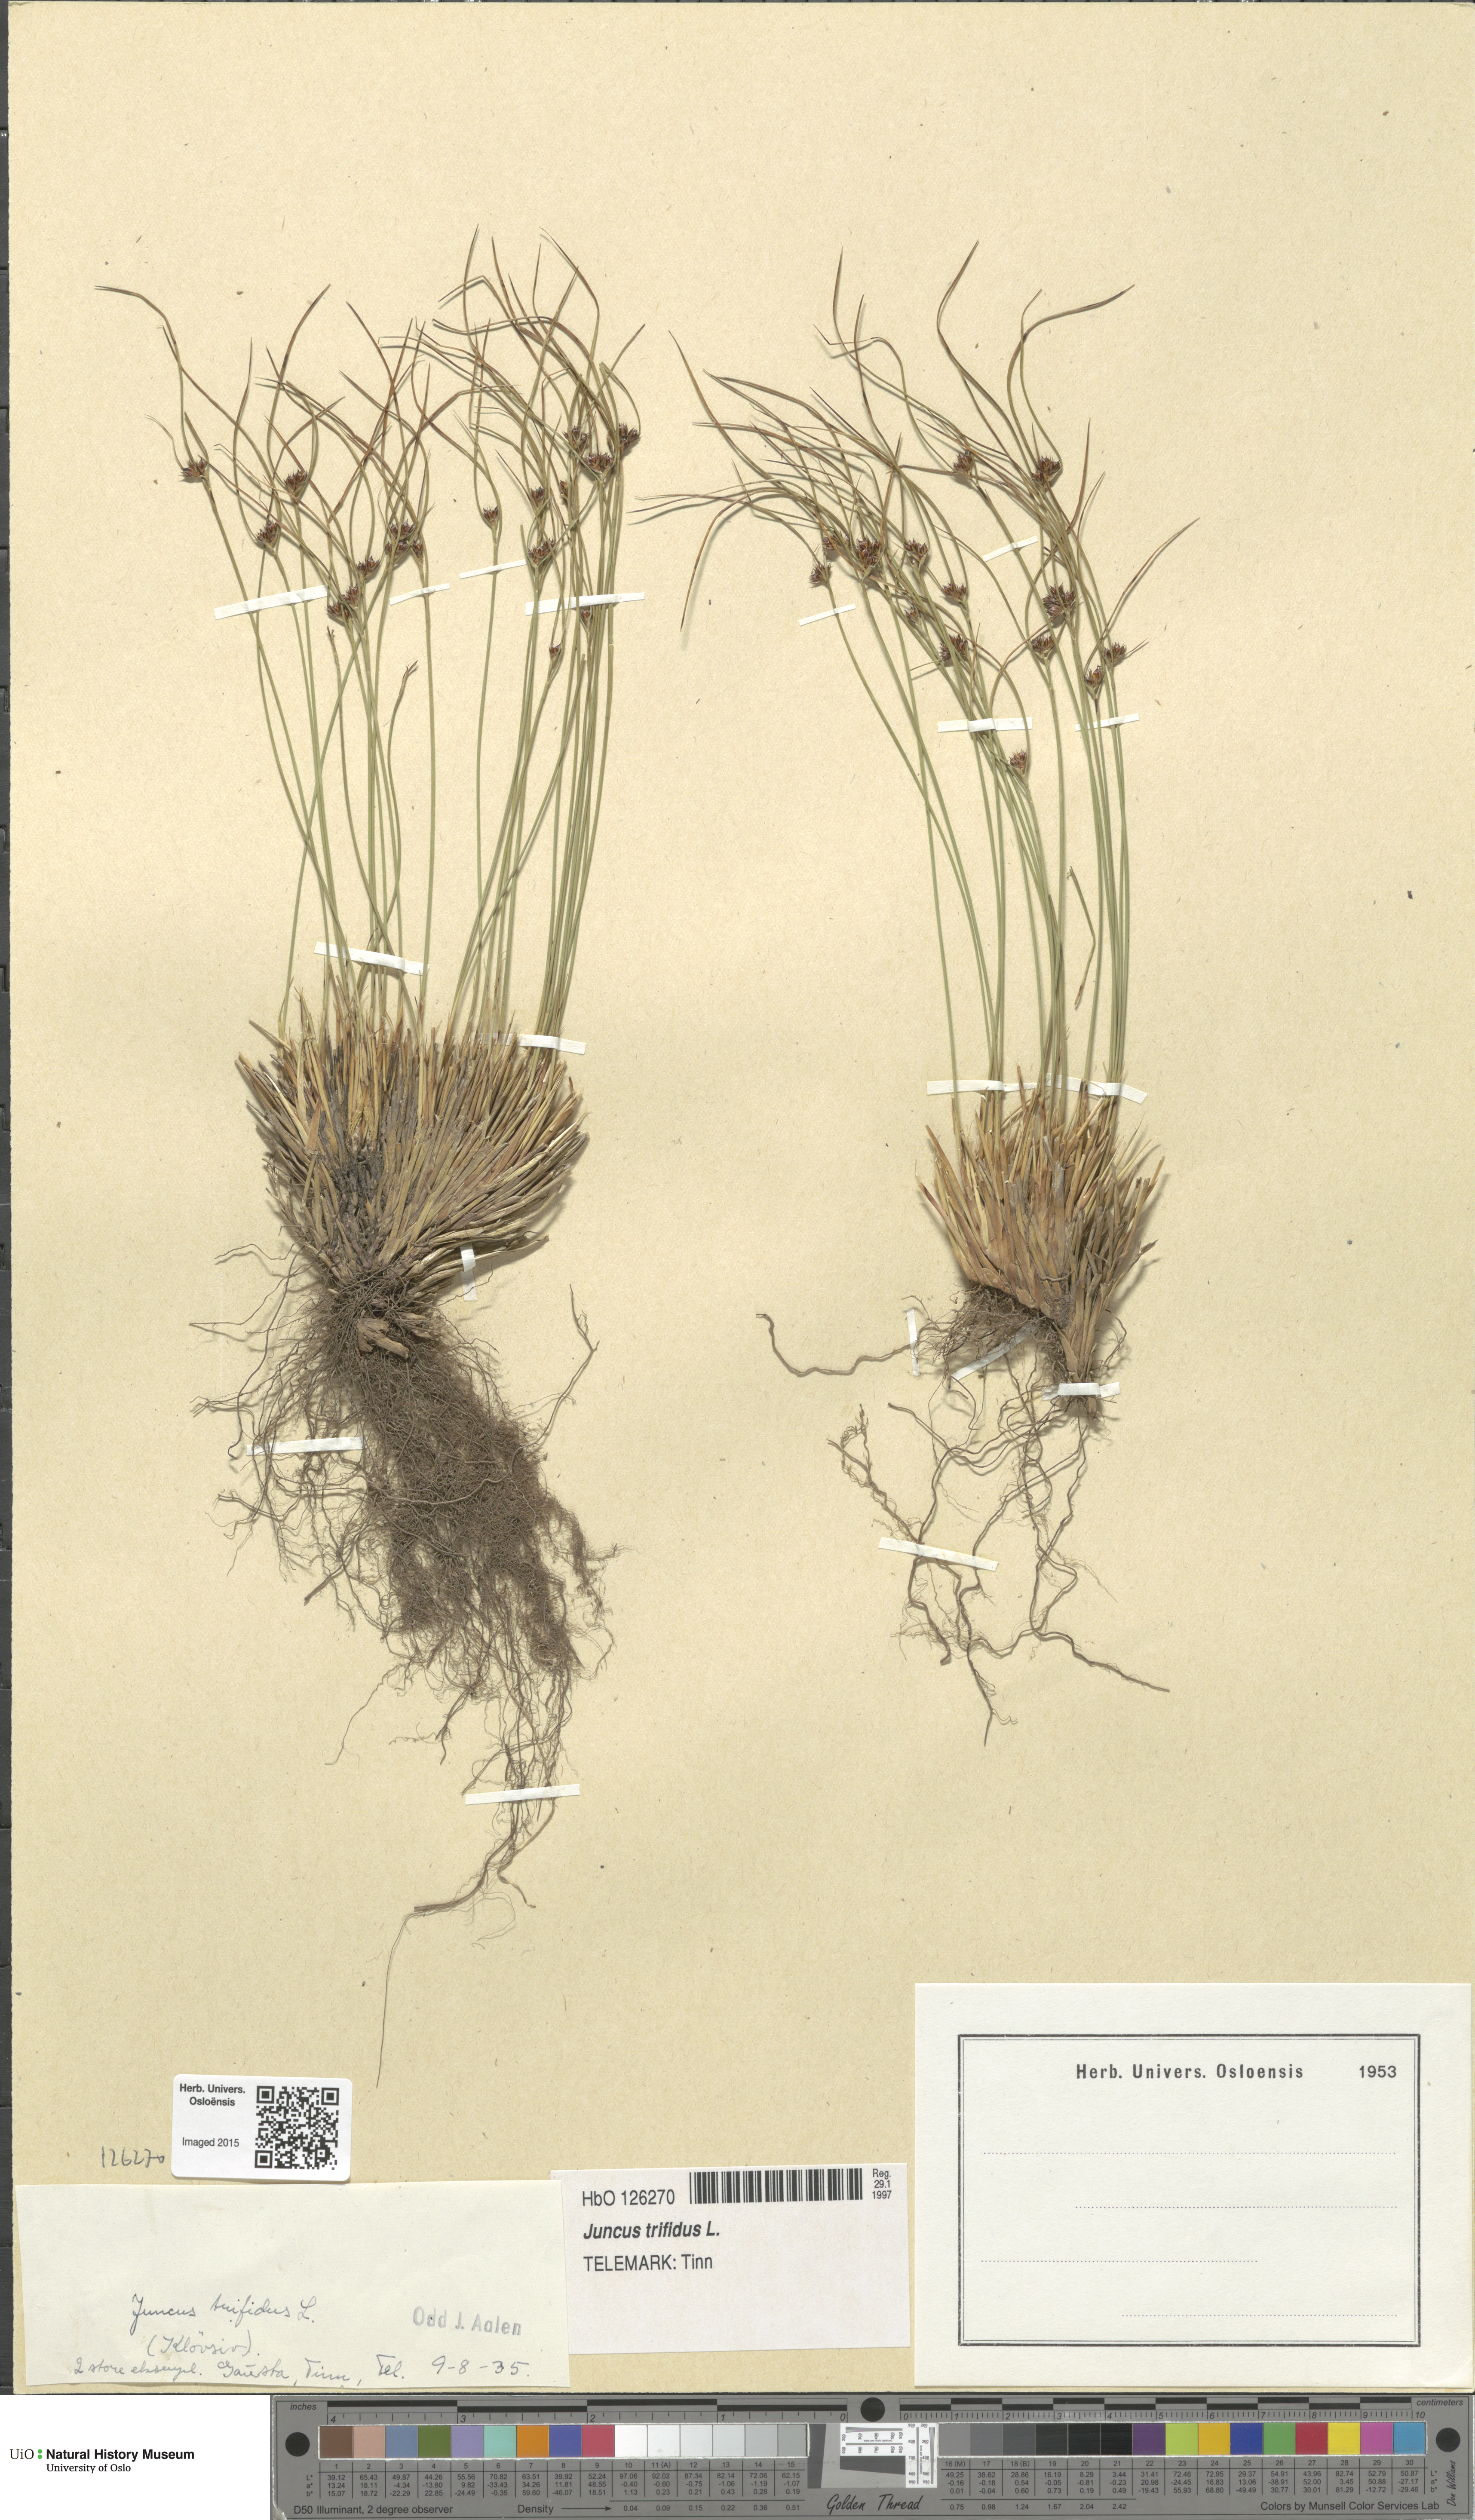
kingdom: Plantae
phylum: Tracheophyta
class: Liliopsida
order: Poales
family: Juncaceae
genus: Oreojuncus
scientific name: Oreojuncus trifidus
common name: Highland rush
